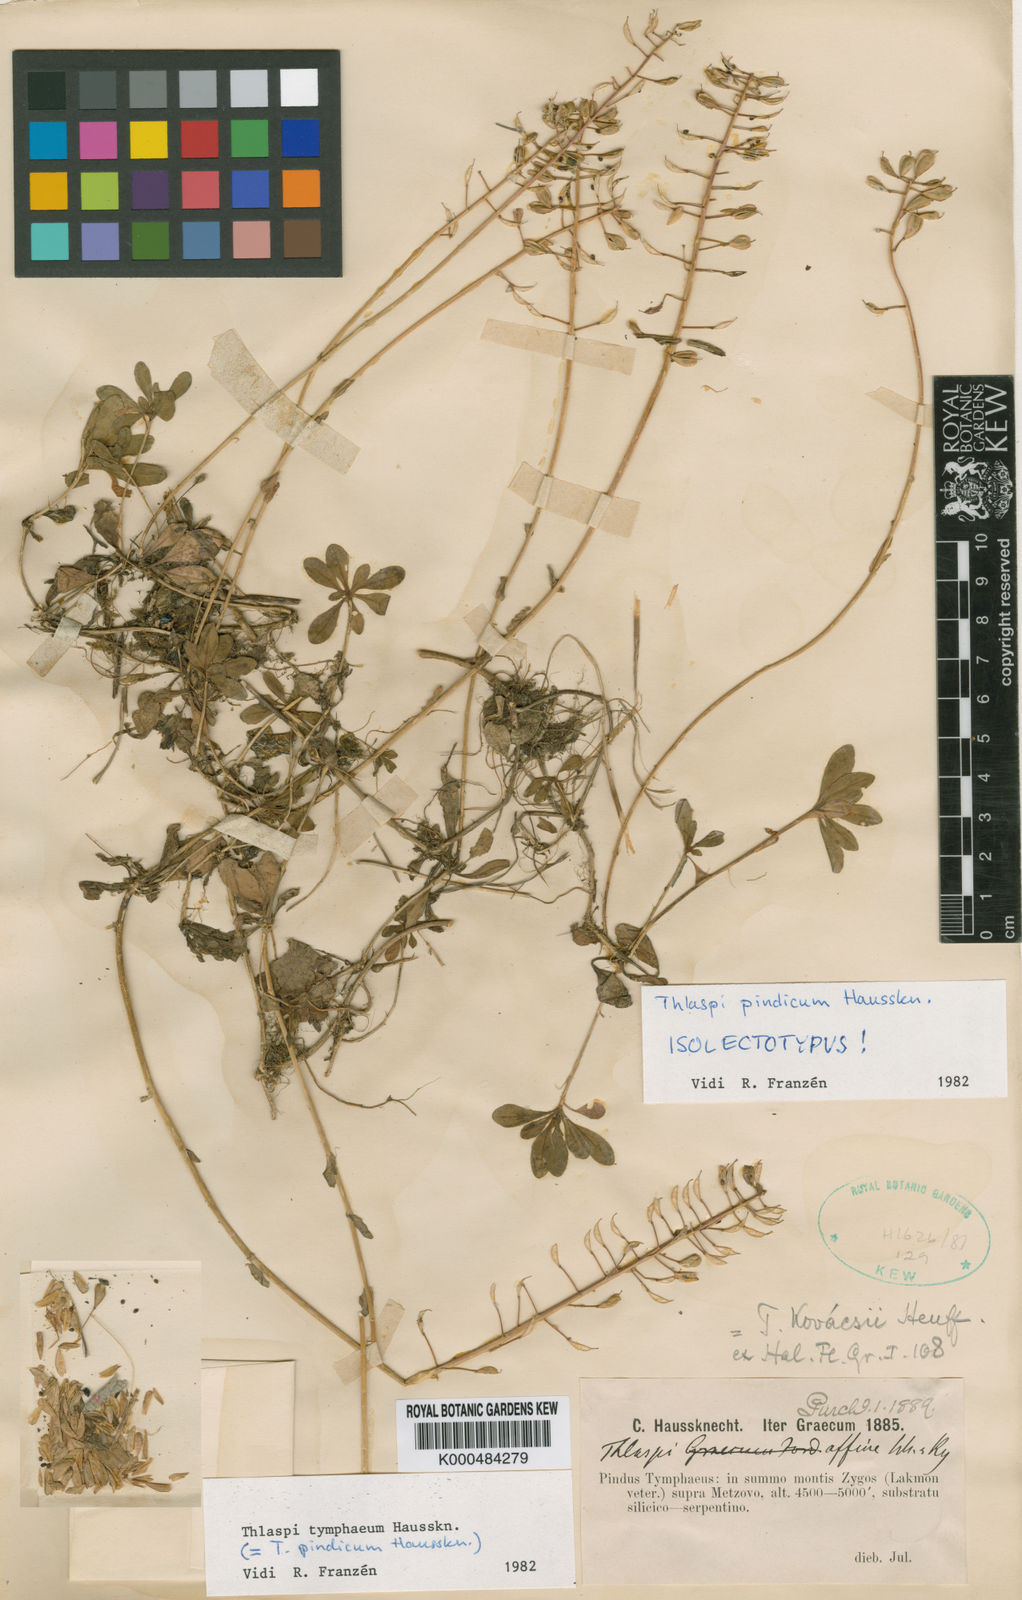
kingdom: Plantae
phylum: Tracheophyta
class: Magnoliopsida
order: Brassicales
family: Brassicaceae
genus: Noccaea
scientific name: Noccaea tymphaea
